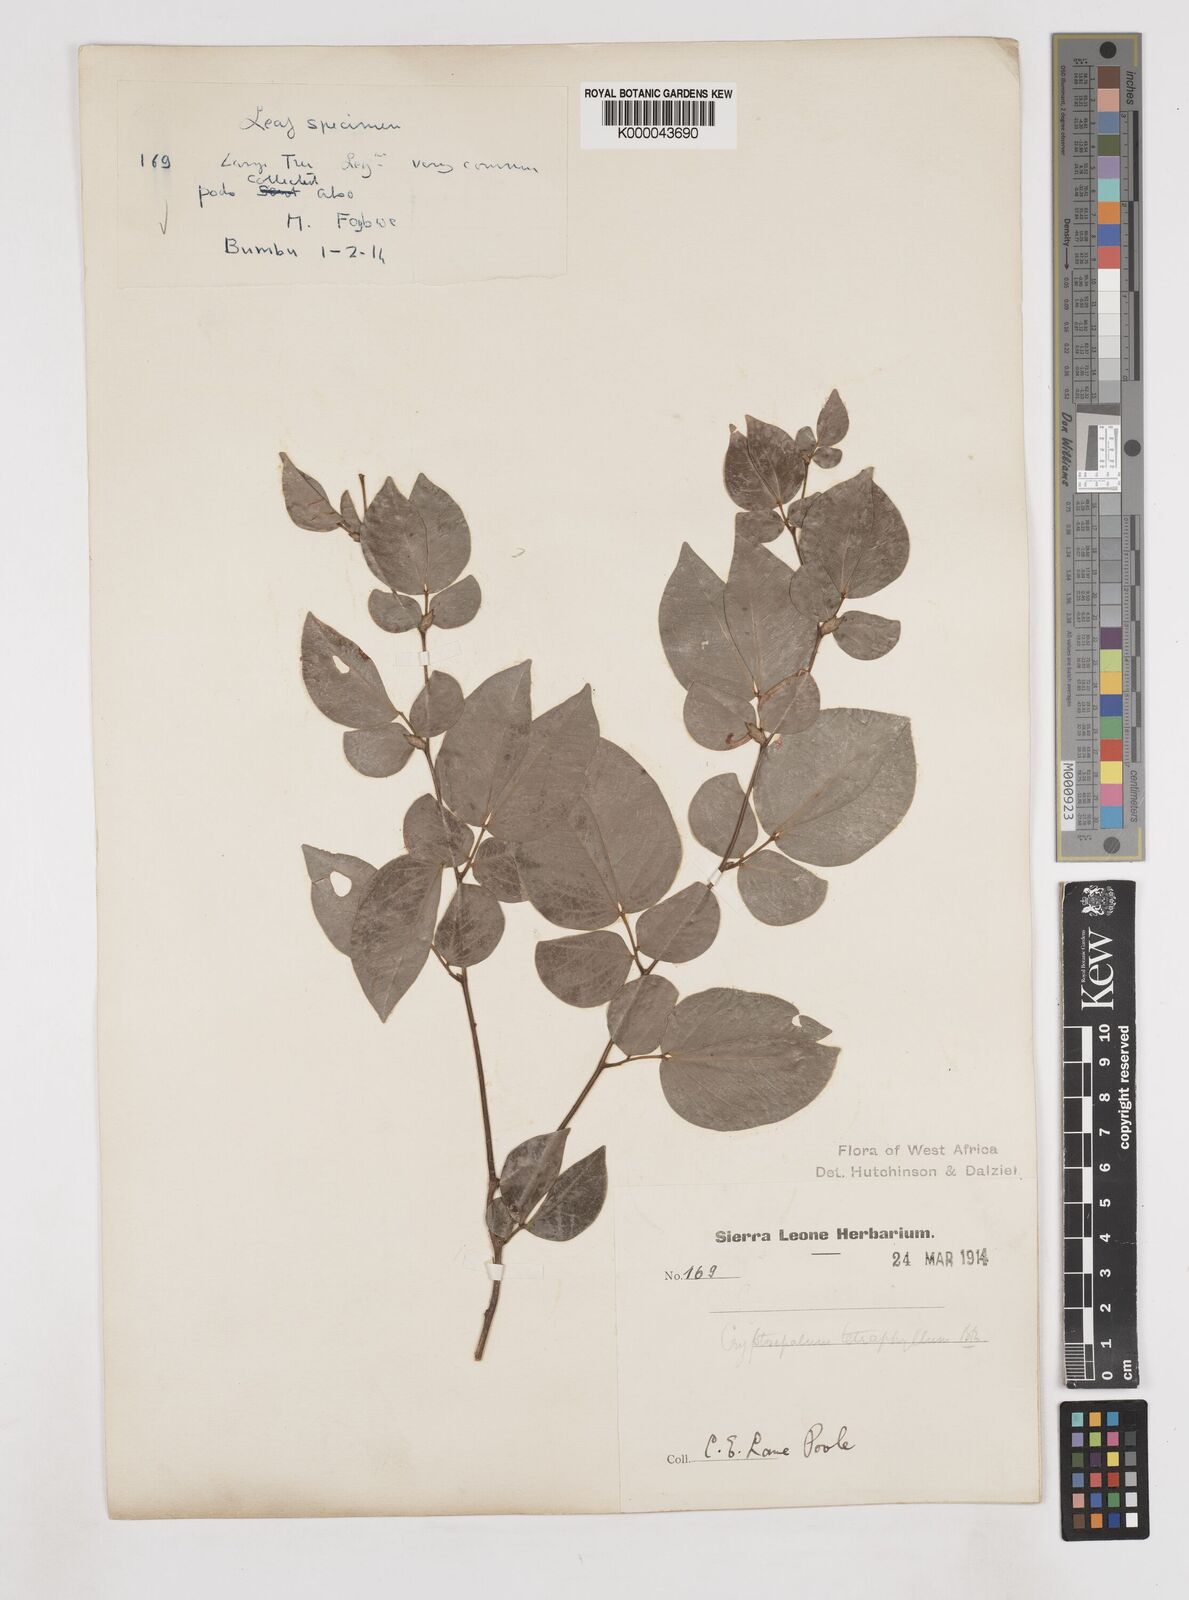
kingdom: Plantae
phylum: Tracheophyta
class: Magnoliopsida
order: Fabales
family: Fabaceae
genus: Cryptosepalum
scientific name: Cryptosepalum tetraphyllum
